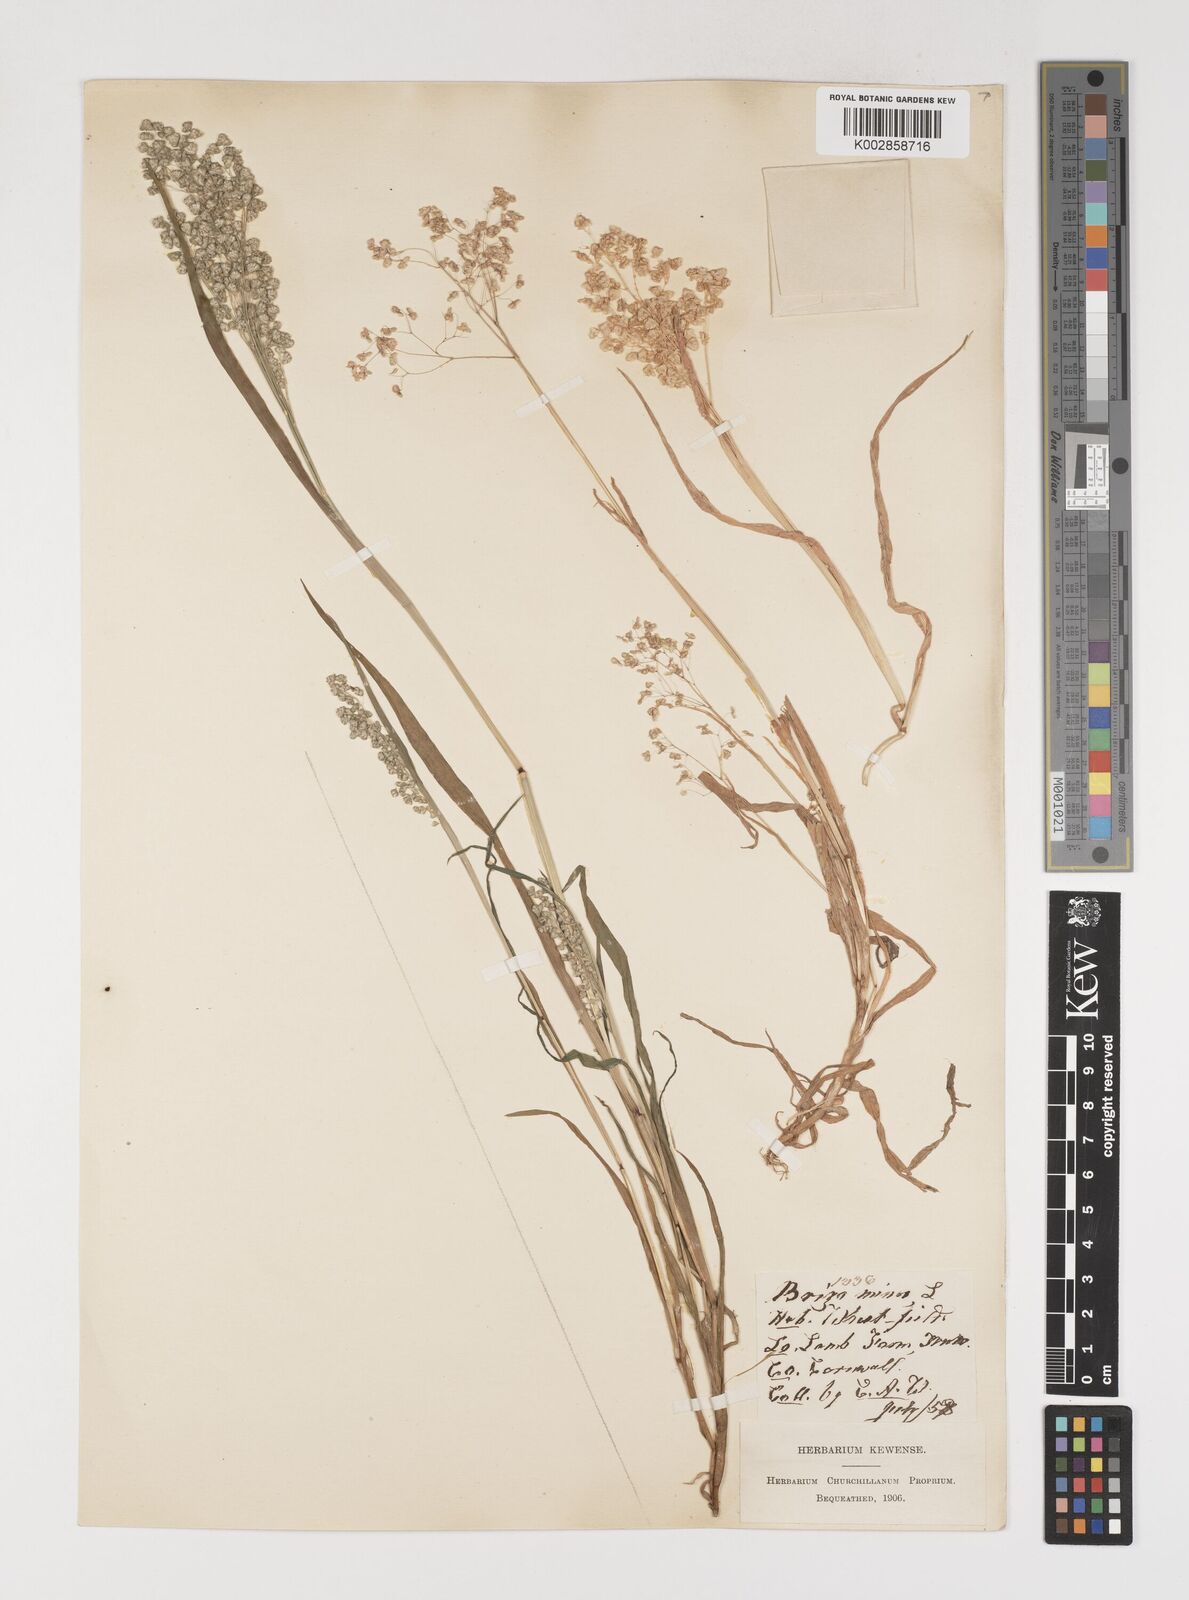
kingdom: Plantae
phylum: Tracheophyta
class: Liliopsida
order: Poales
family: Poaceae
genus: Briza
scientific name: Briza minor
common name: Lesser quaking-grass
